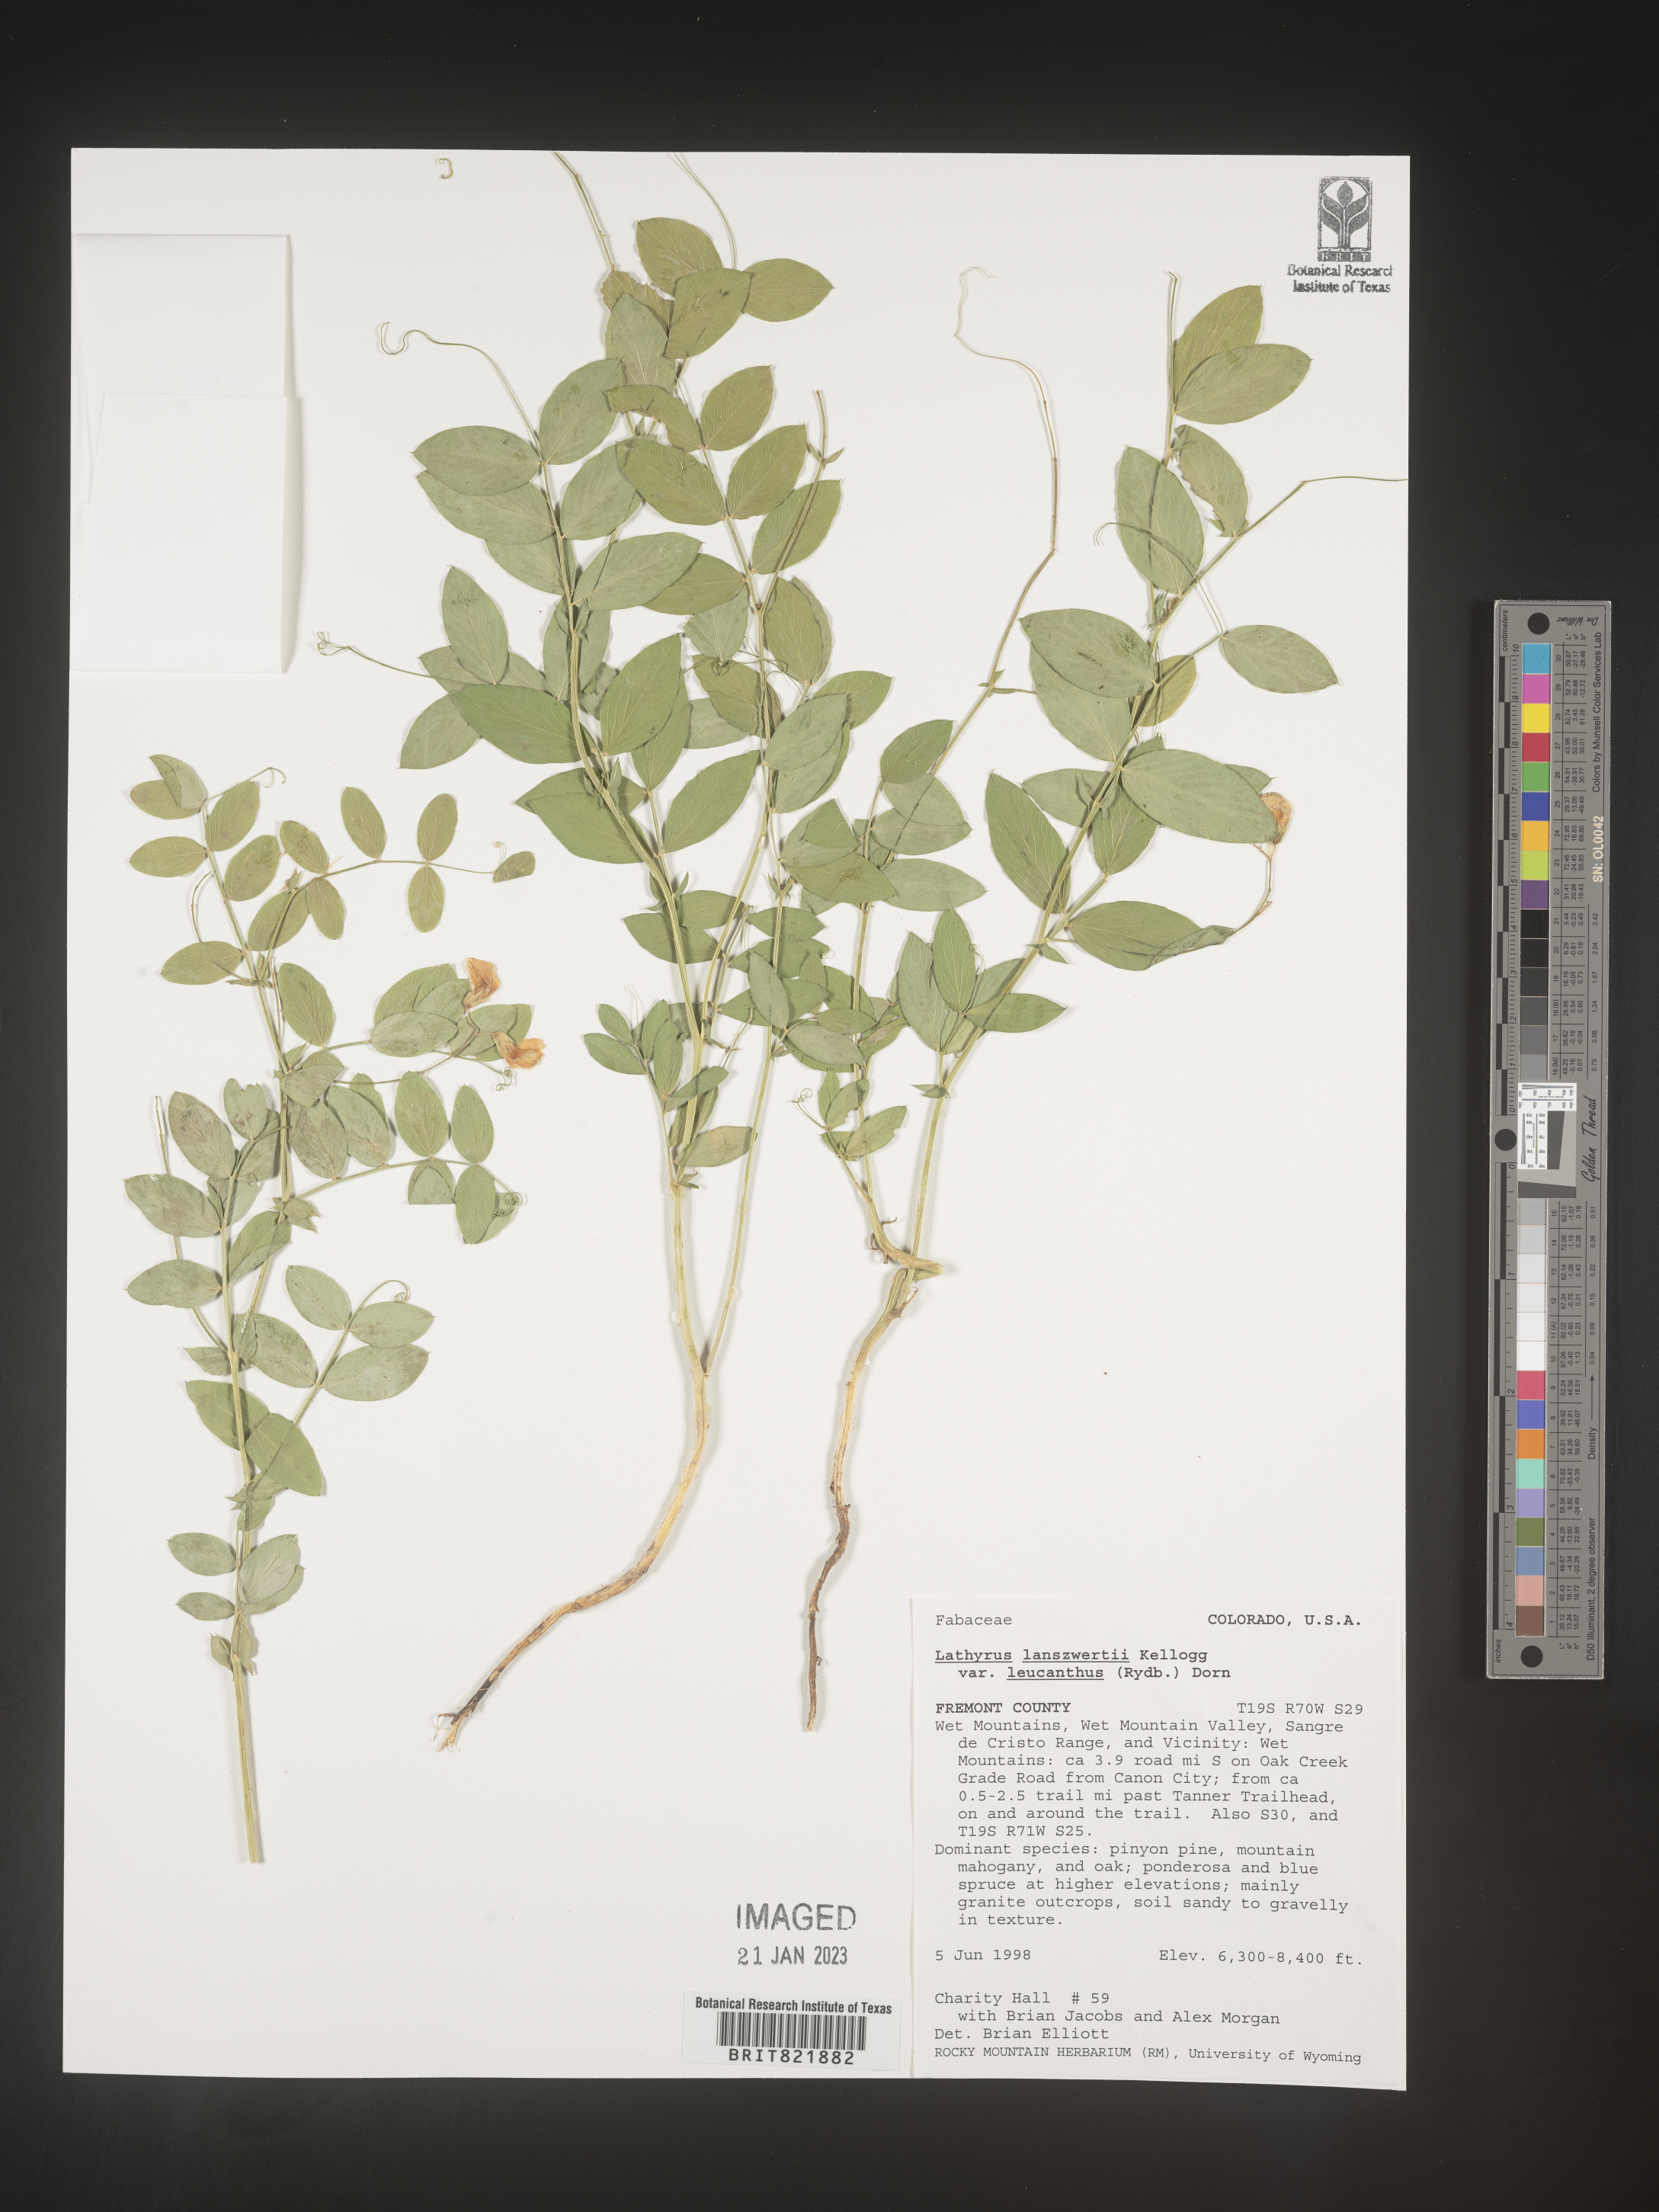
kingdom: Plantae
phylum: Tracheophyta
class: Magnoliopsida
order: Fabales
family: Fabaceae
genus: Lathyrus
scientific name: Lathyrus
